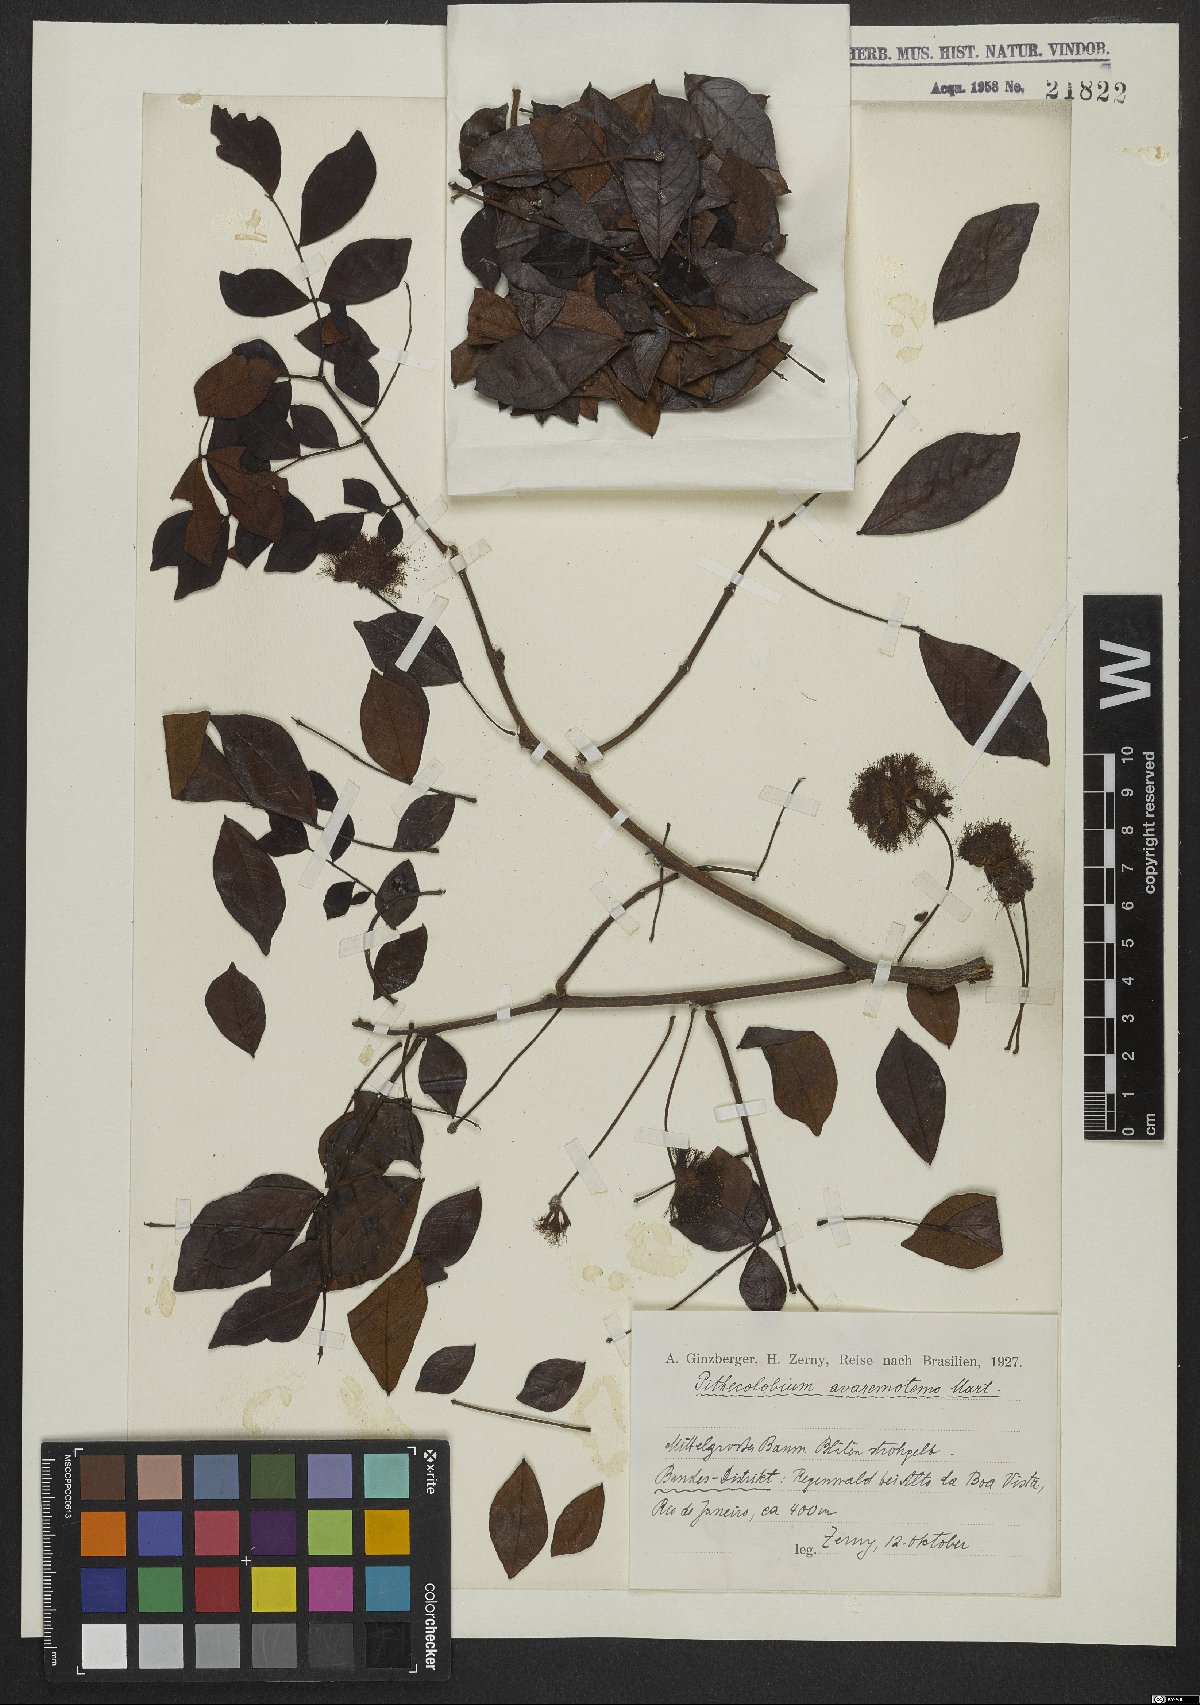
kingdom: Plantae
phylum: Tracheophyta
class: Magnoliopsida
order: Fabales
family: Fabaceae
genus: Abarema
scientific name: Abarema cochliacarpos
